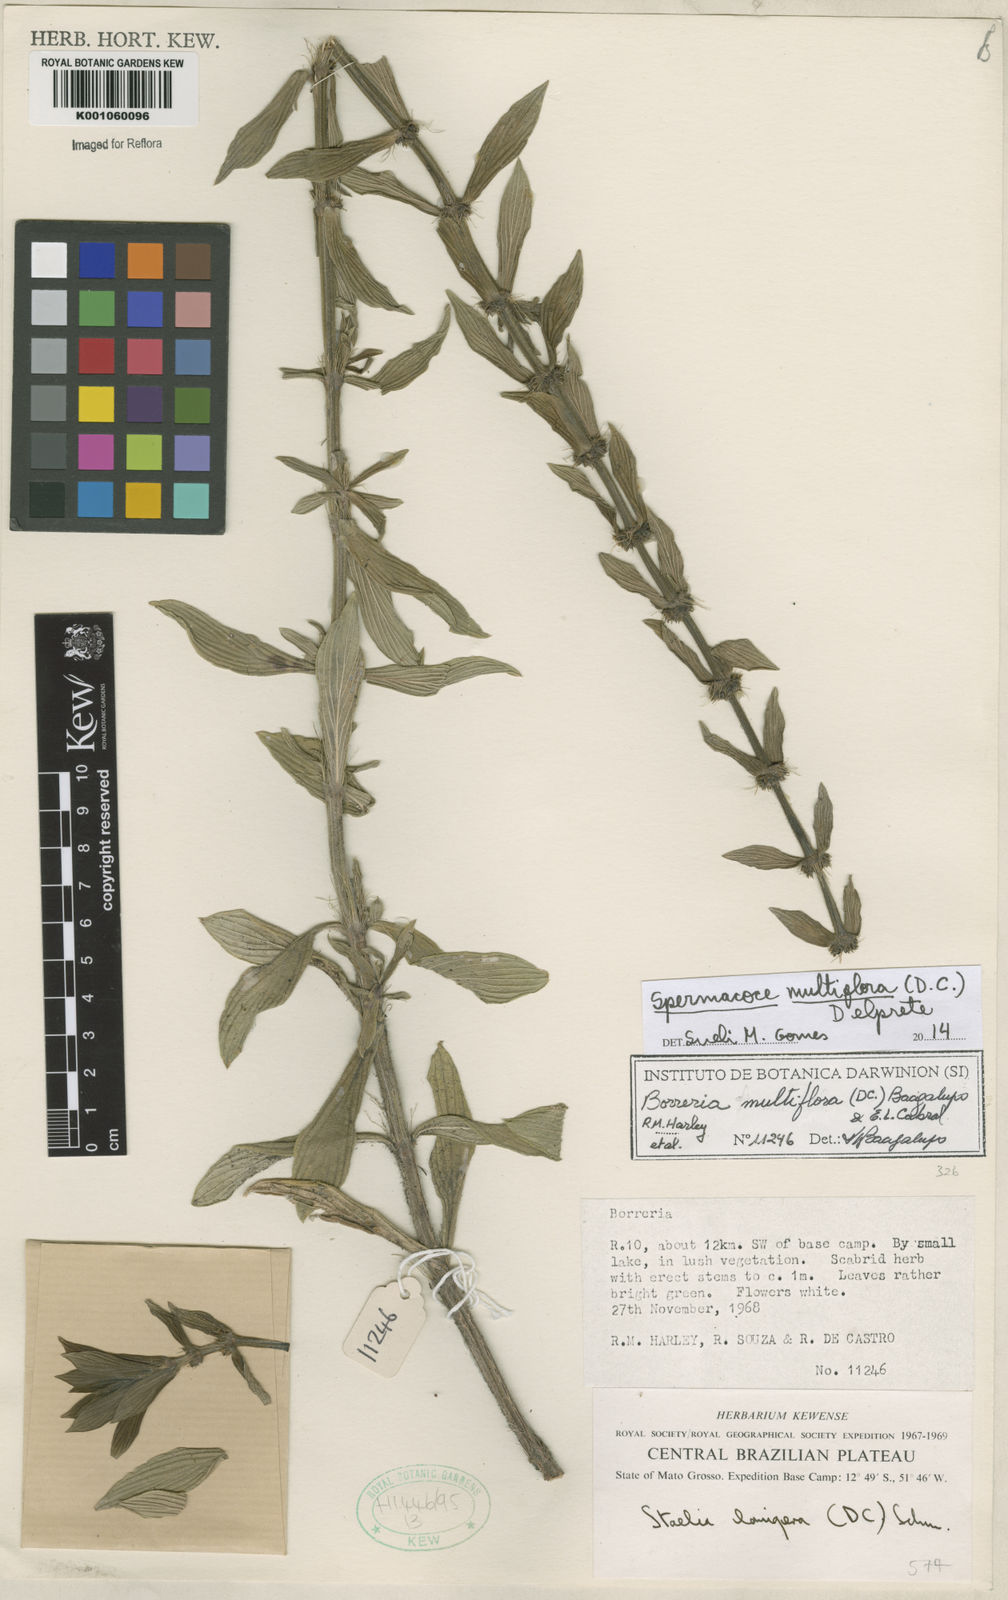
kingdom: Plantae
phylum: Tracheophyta
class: Magnoliopsida
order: Gentianales
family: Rubiaceae
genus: Spermacoce
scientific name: Spermacoce multiflora
